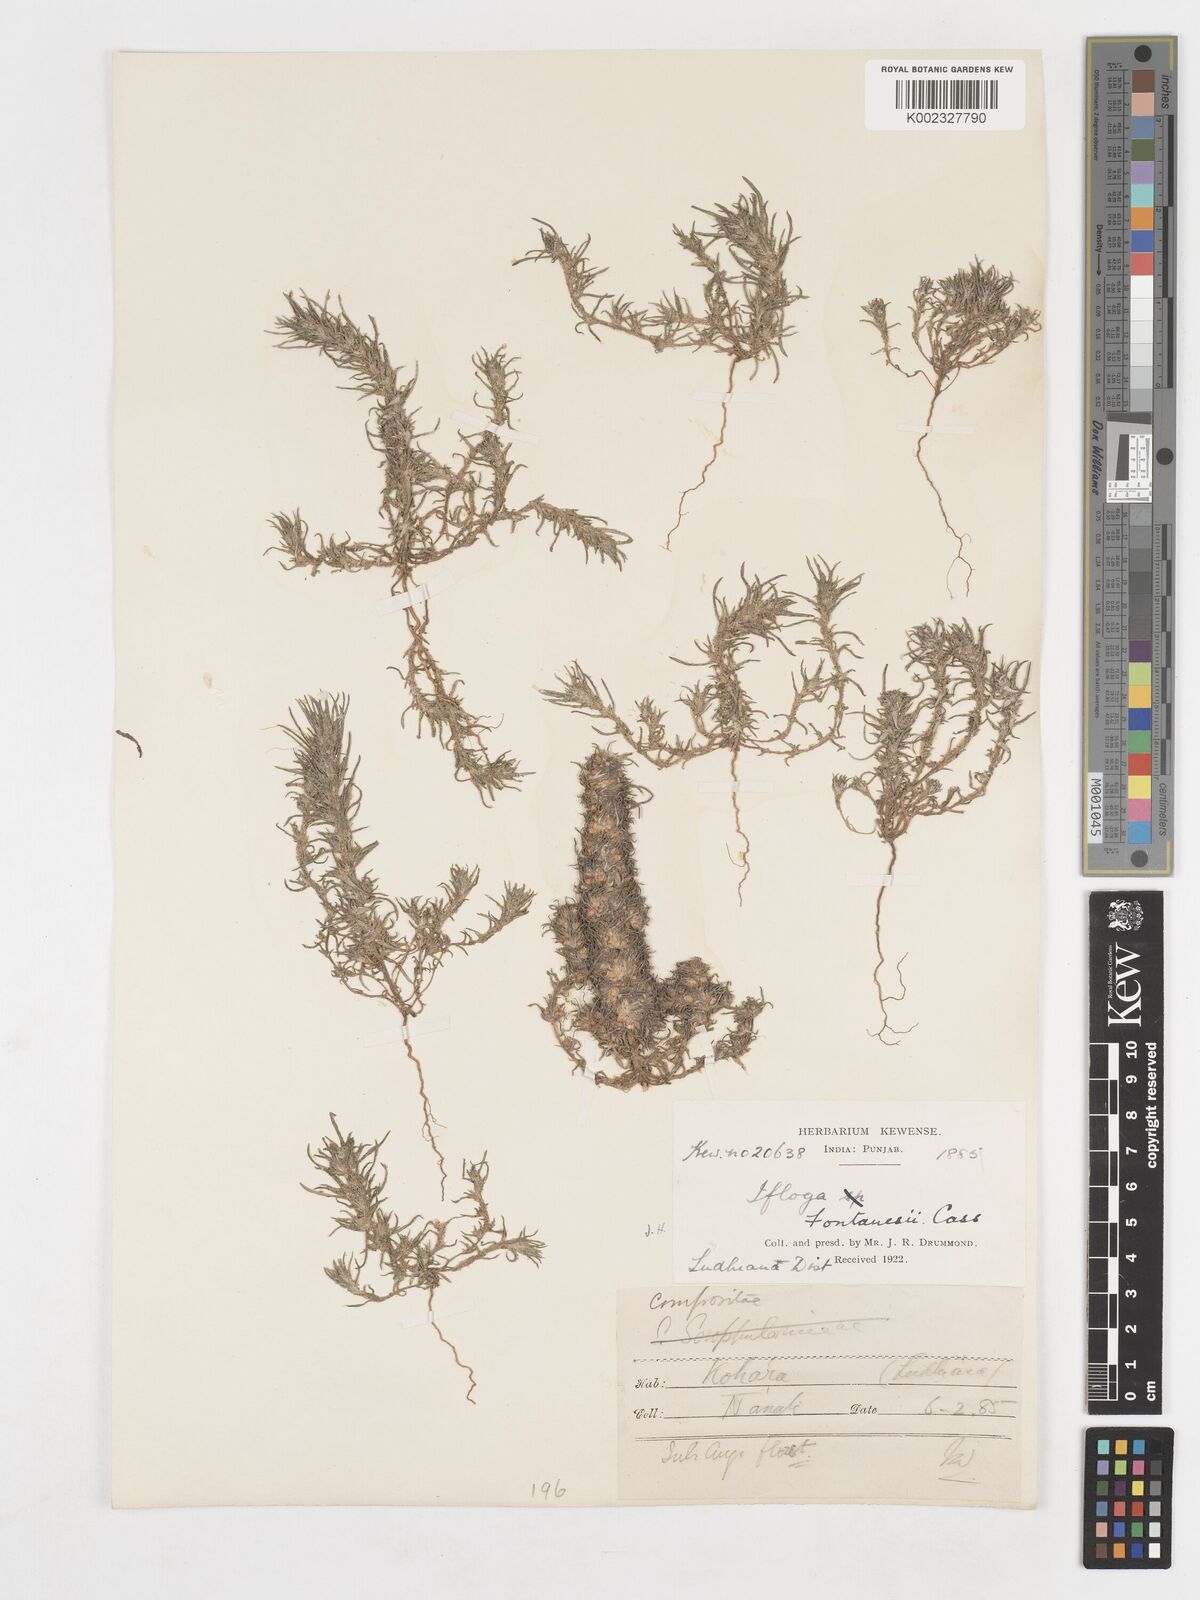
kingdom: Plantae
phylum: Tracheophyta
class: Magnoliopsida
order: Asterales
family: Asteraceae
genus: Ifloga
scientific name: Ifloga spicata
